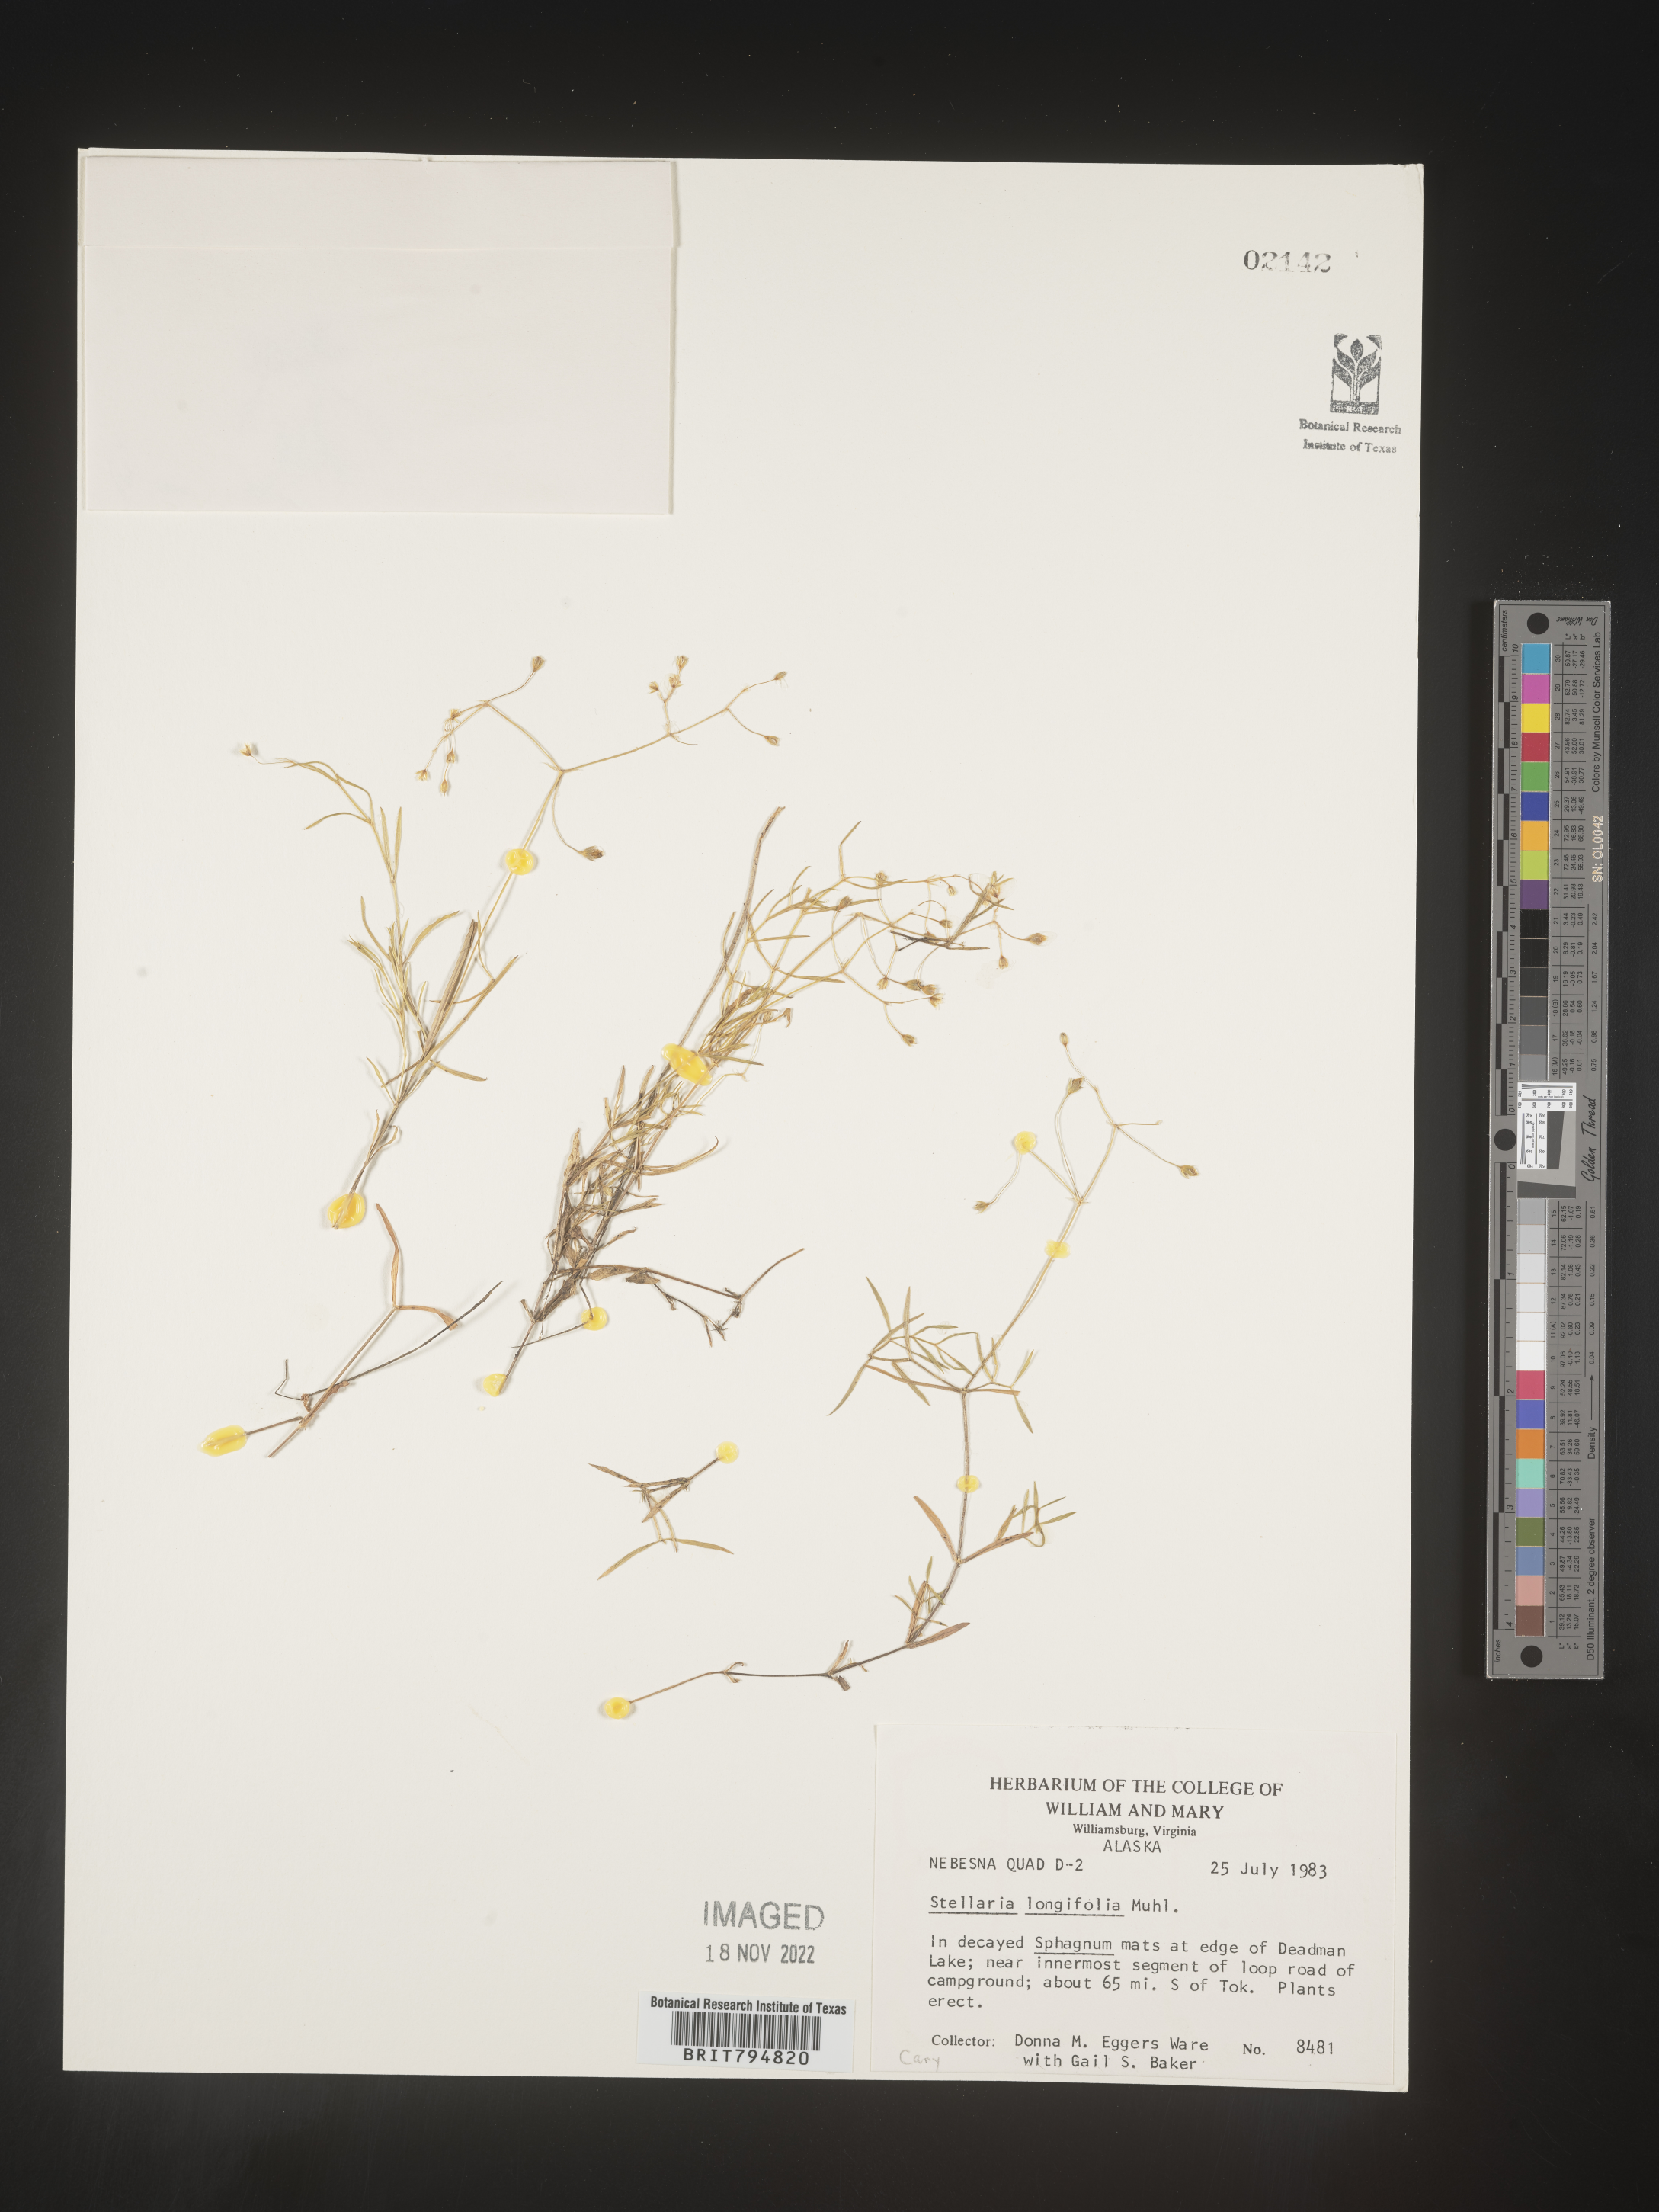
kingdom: Plantae
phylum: Tracheophyta
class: Magnoliopsida
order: Caryophyllales
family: Caryophyllaceae
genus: Stellaria
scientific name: Stellaria longifolia
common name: Long-leaved chickweed
